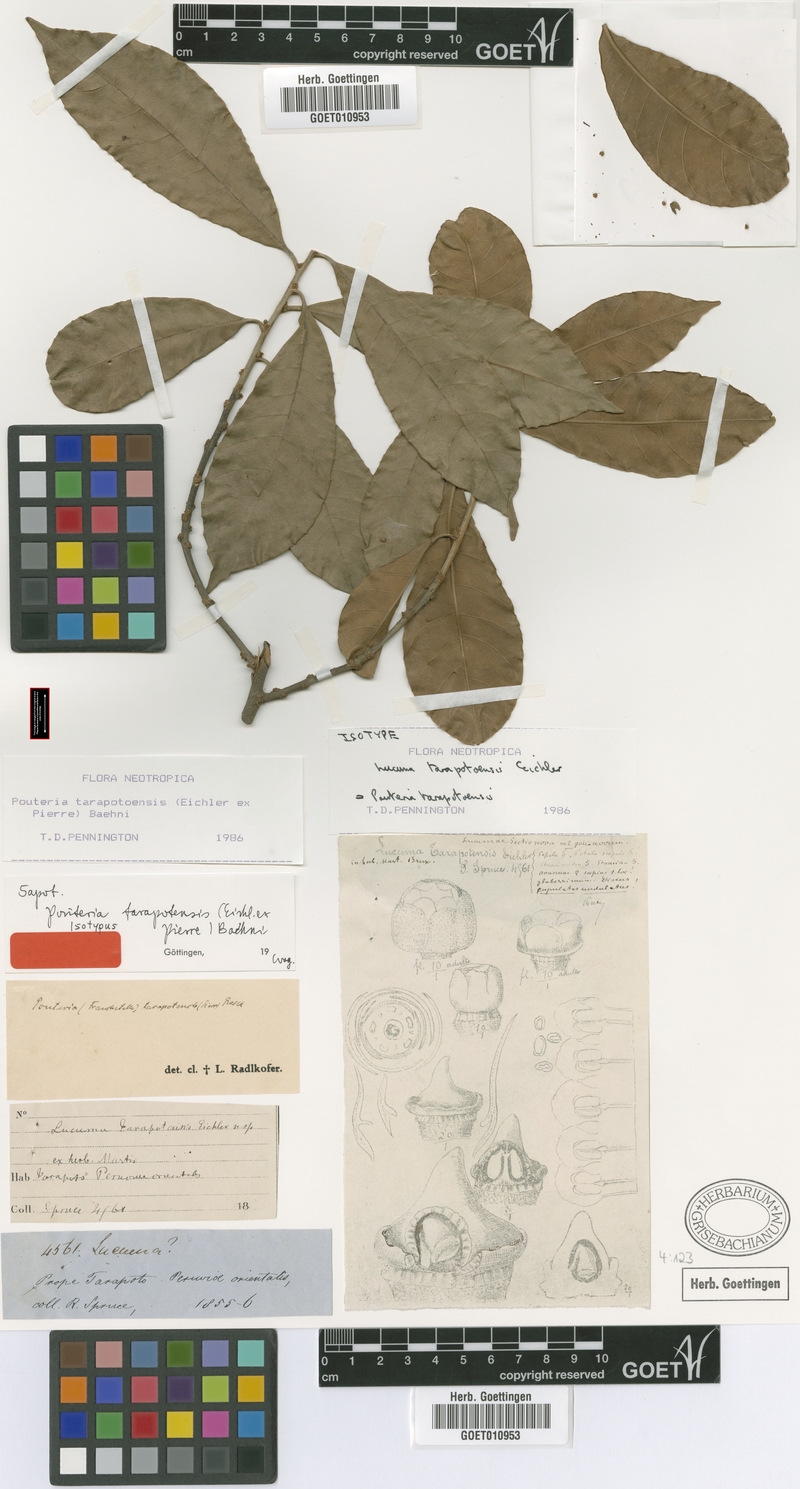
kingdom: Plantae
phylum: Tracheophyta
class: Magnoliopsida
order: Ericales
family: Sapotaceae
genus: Pouteria
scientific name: Pouteria tarapotensis
